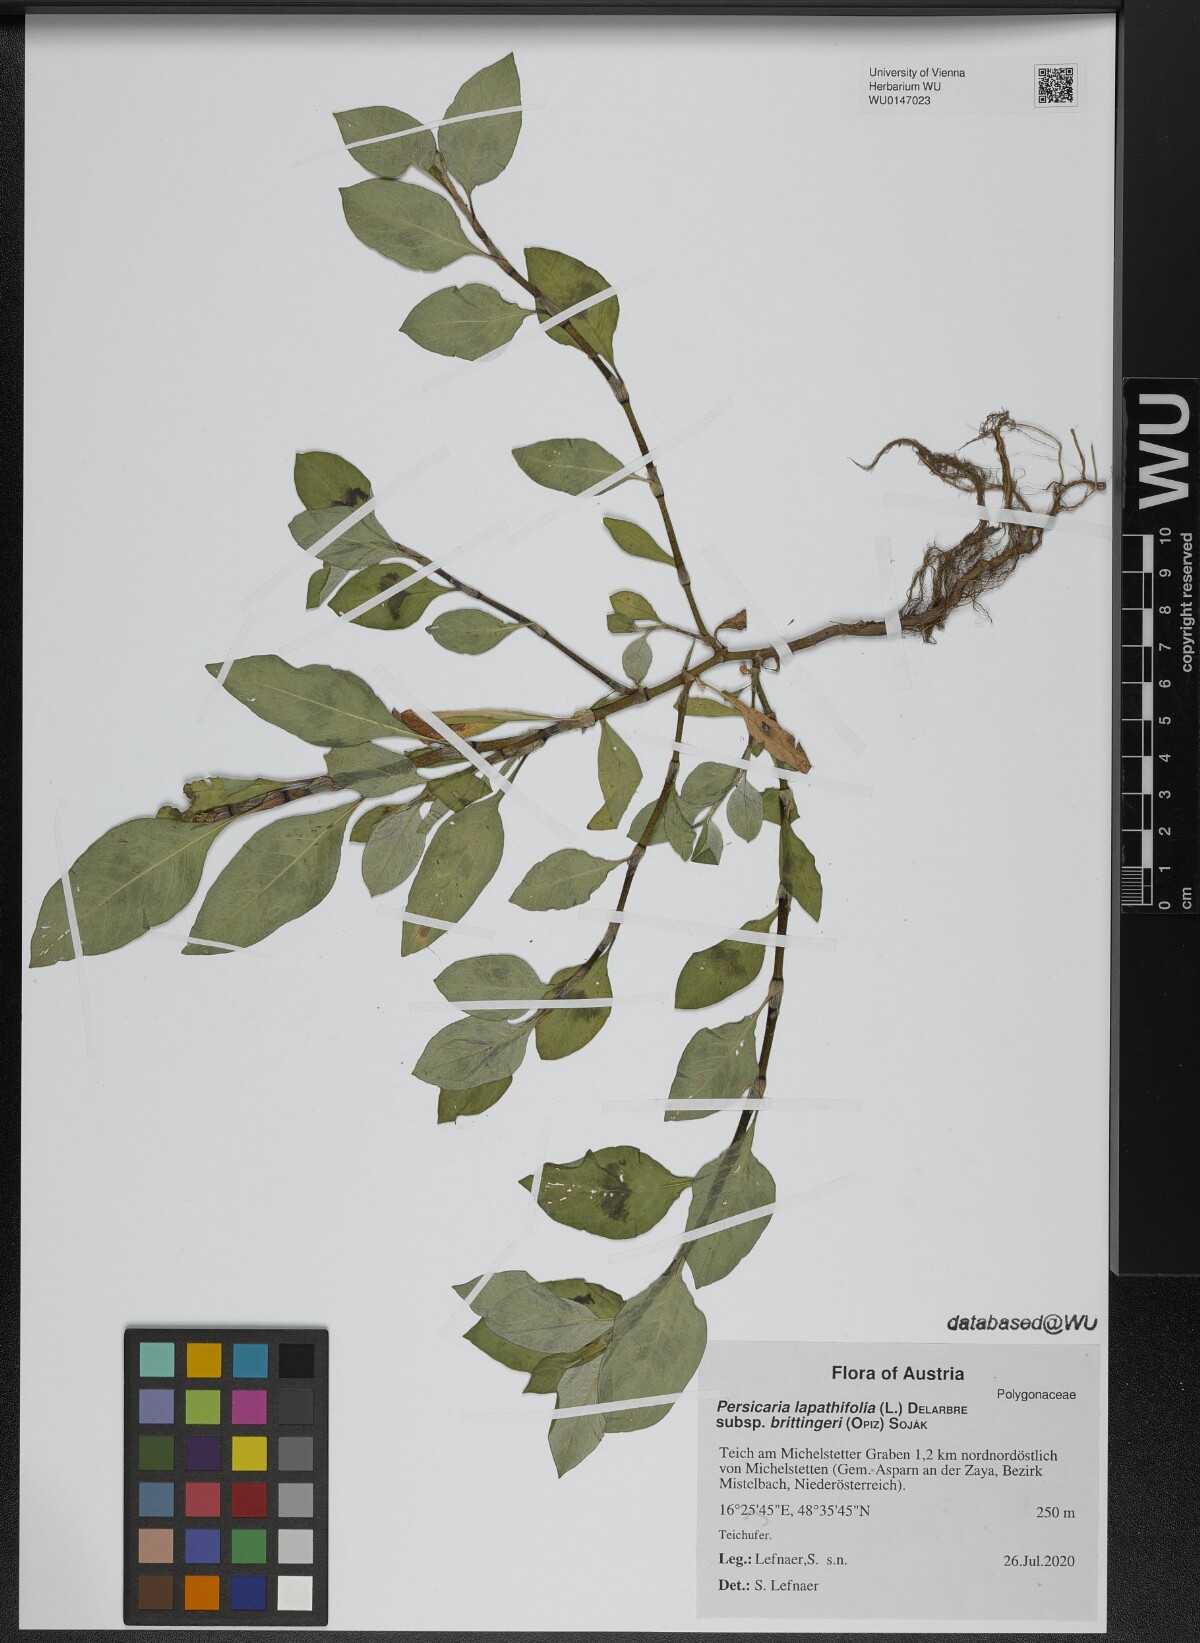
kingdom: Plantae
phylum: Tracheophyta
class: Magnoliopsida
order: Caryophyllales
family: Polygonaceae
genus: Persicaria
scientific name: Persicaria lapathifolia
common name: Curlytop knotweed
